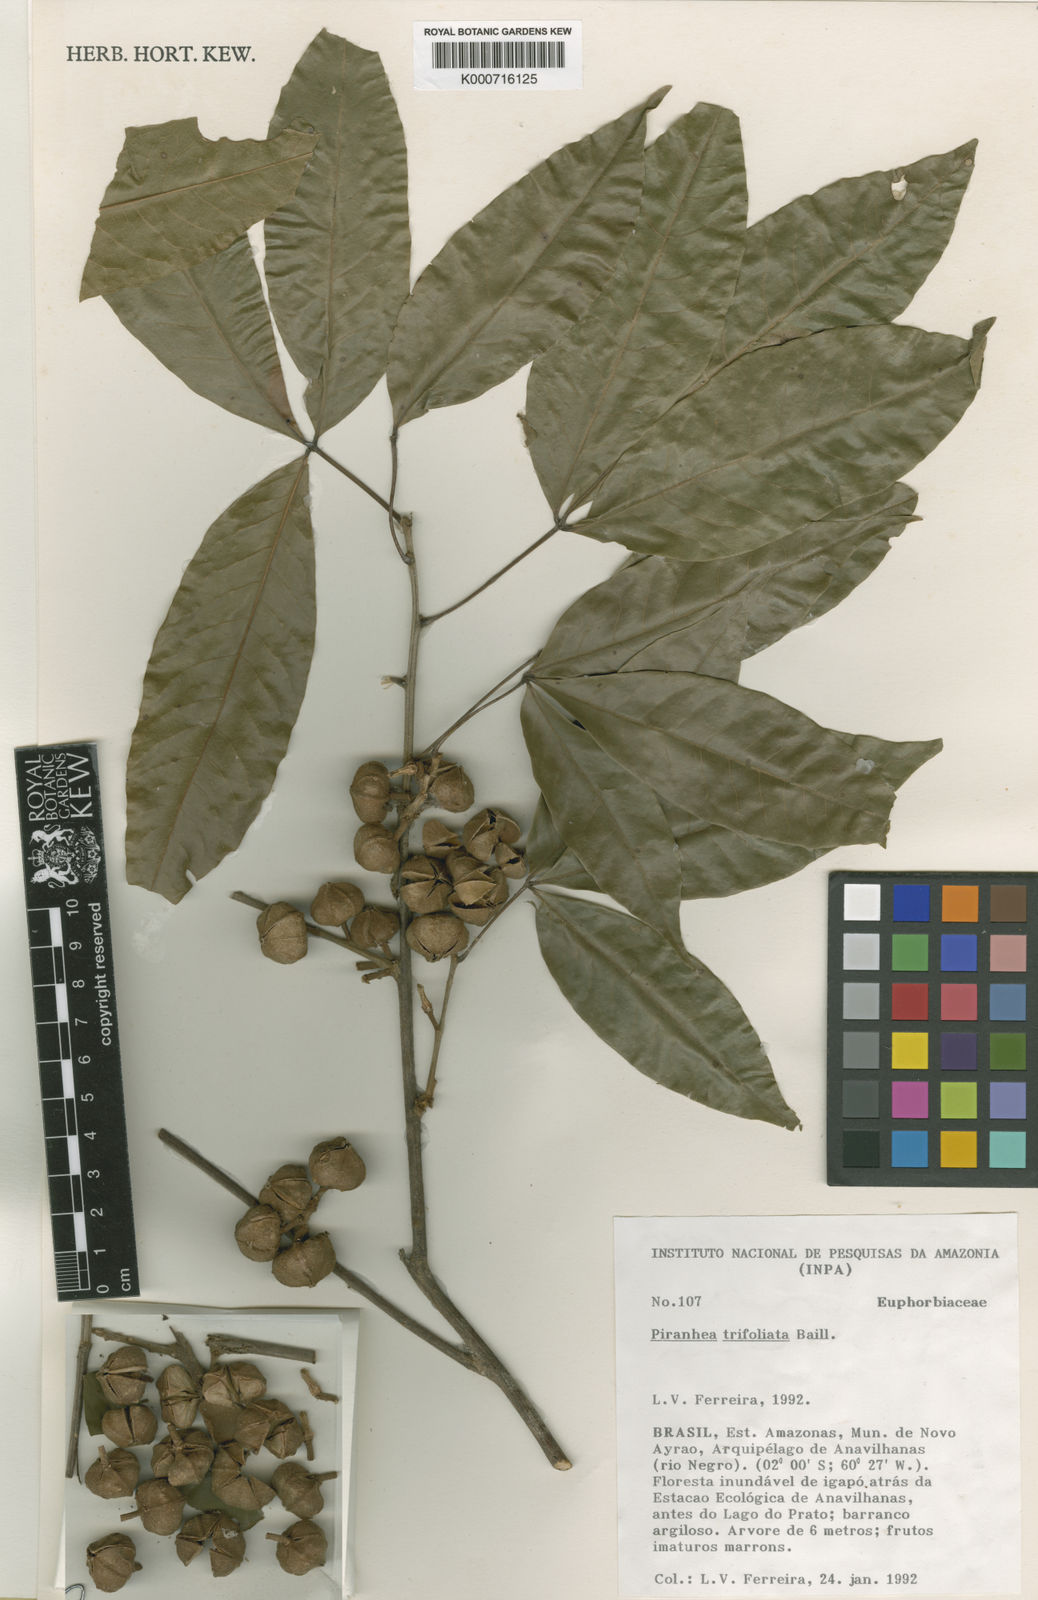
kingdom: Plantae
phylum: Tracheophyta
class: Magnoliopsida
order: Malpighiales
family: Picrodendraceae
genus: Piranhea
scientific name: Piranhea
